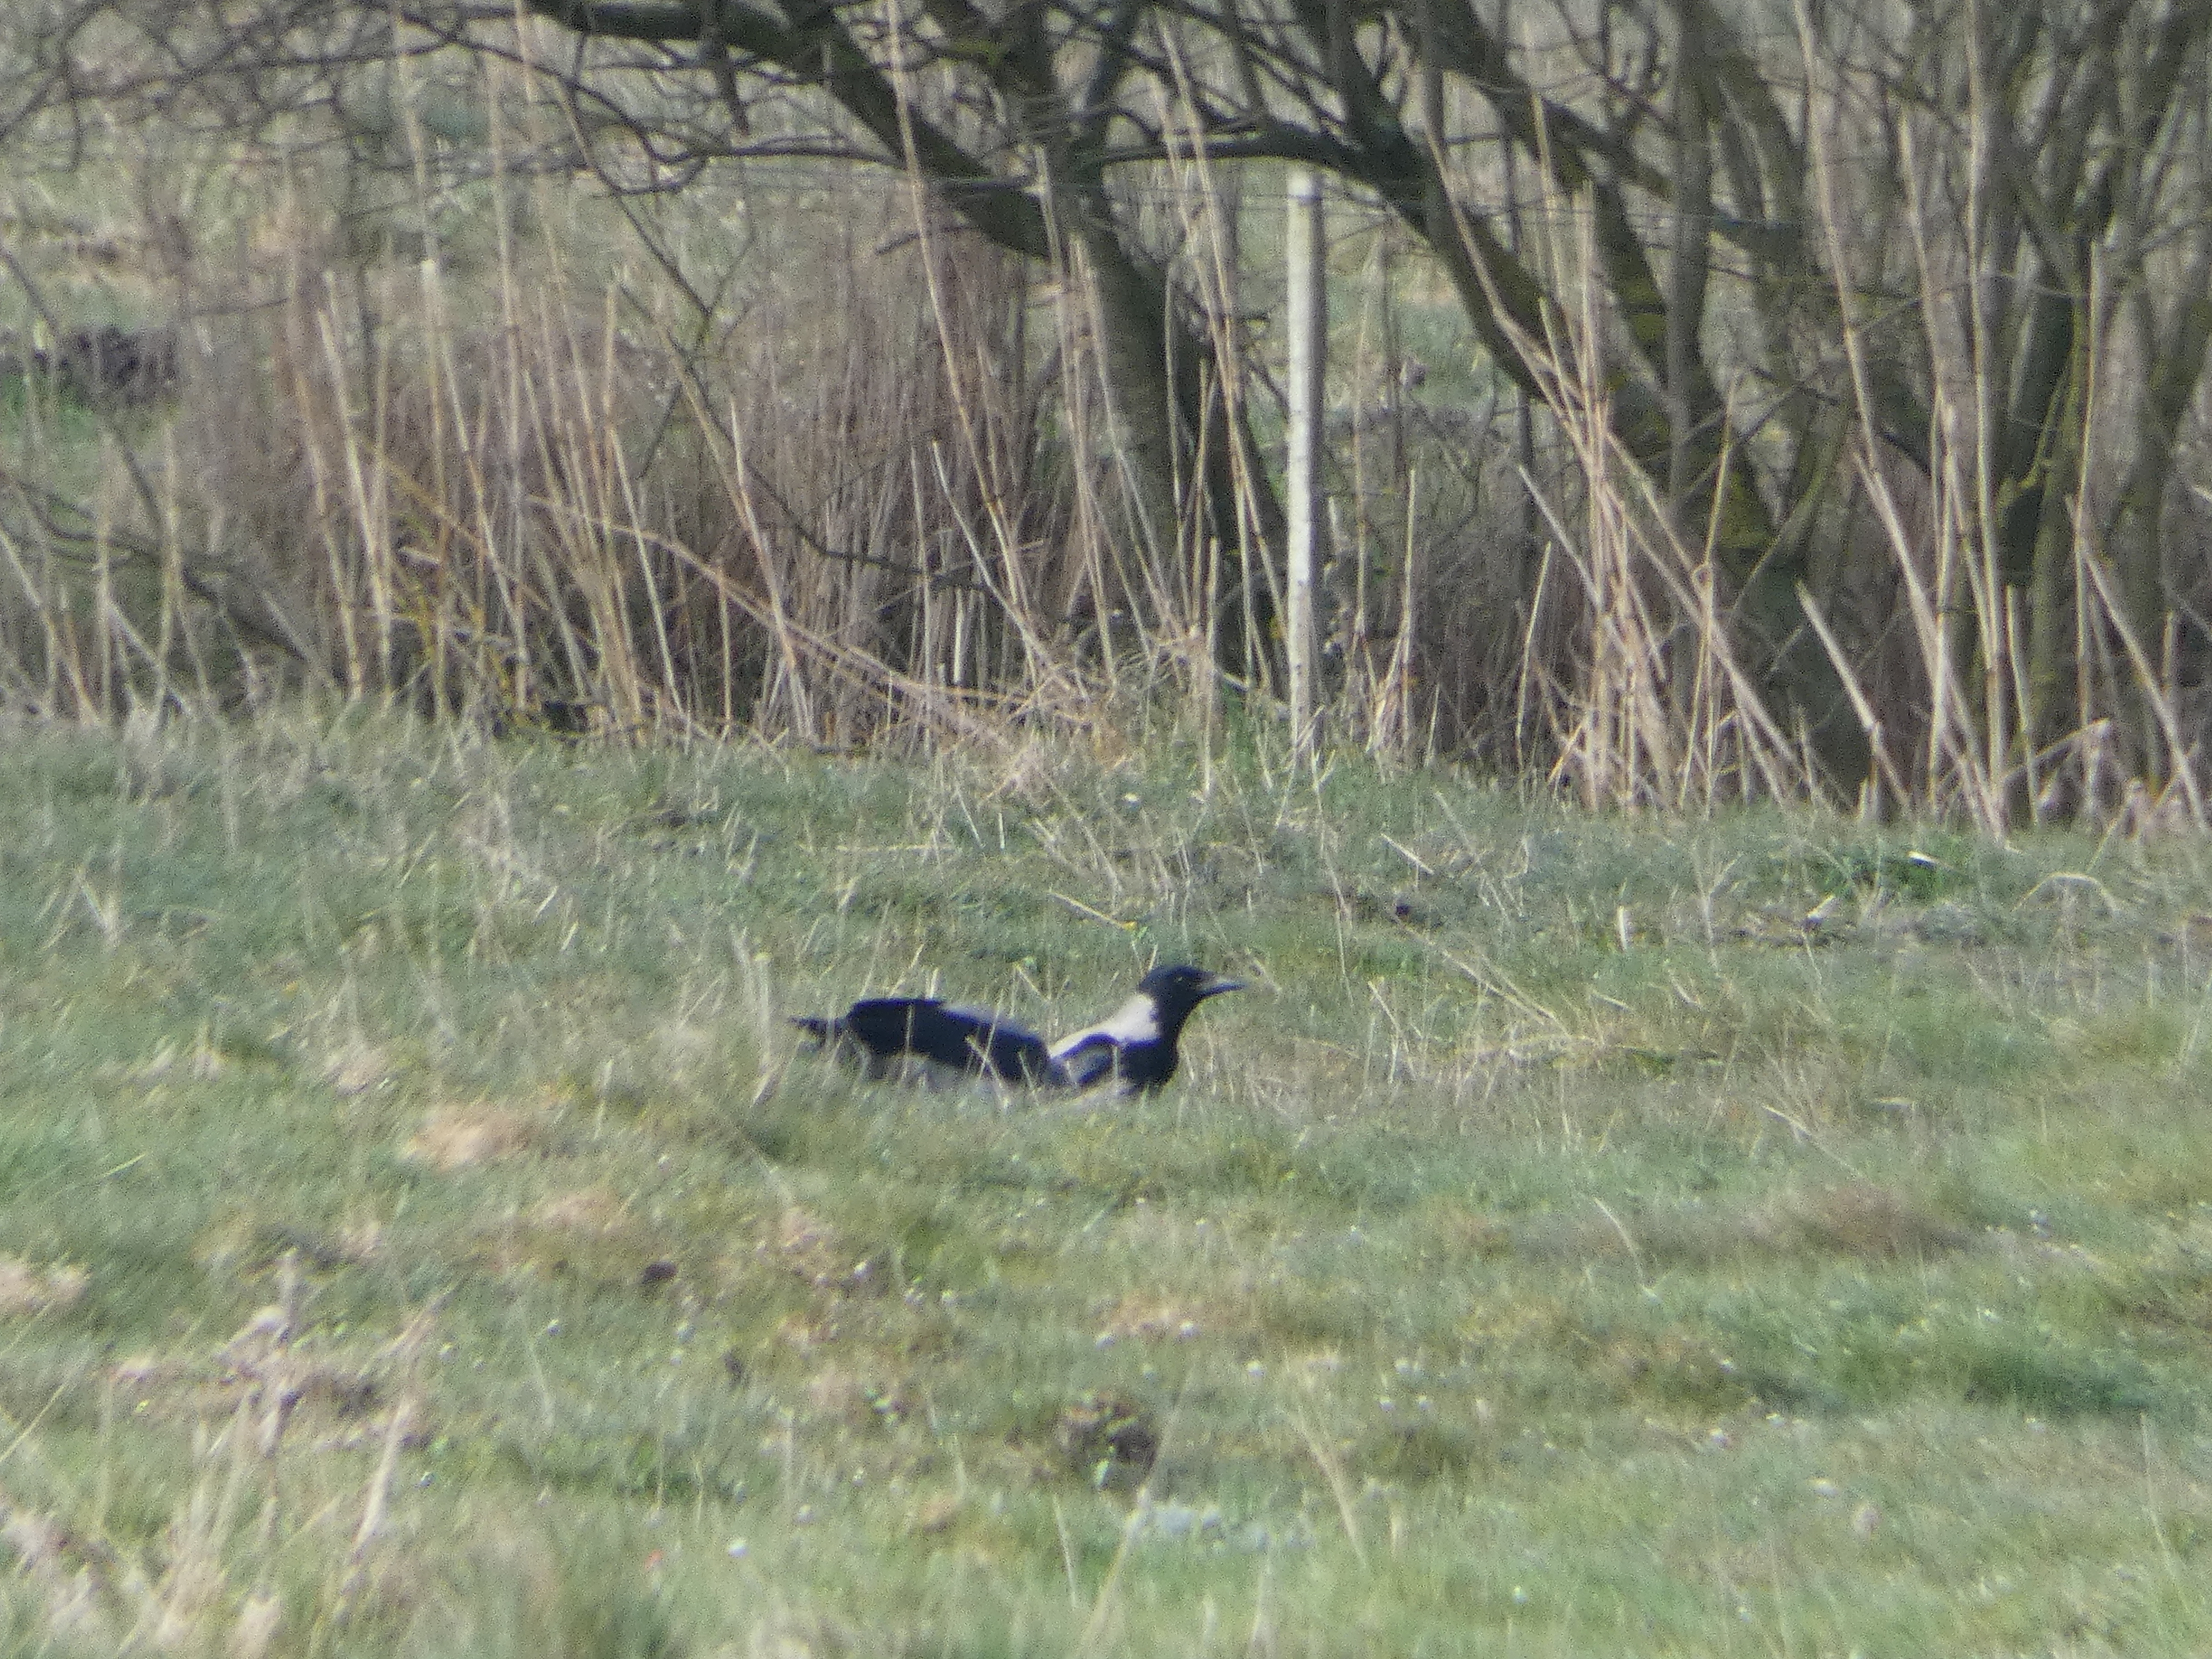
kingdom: Animalia
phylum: Chordata
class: Aves
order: Passeriformes
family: Corvidae
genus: Corvus
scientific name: Corvus cornix
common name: Gråkrage
